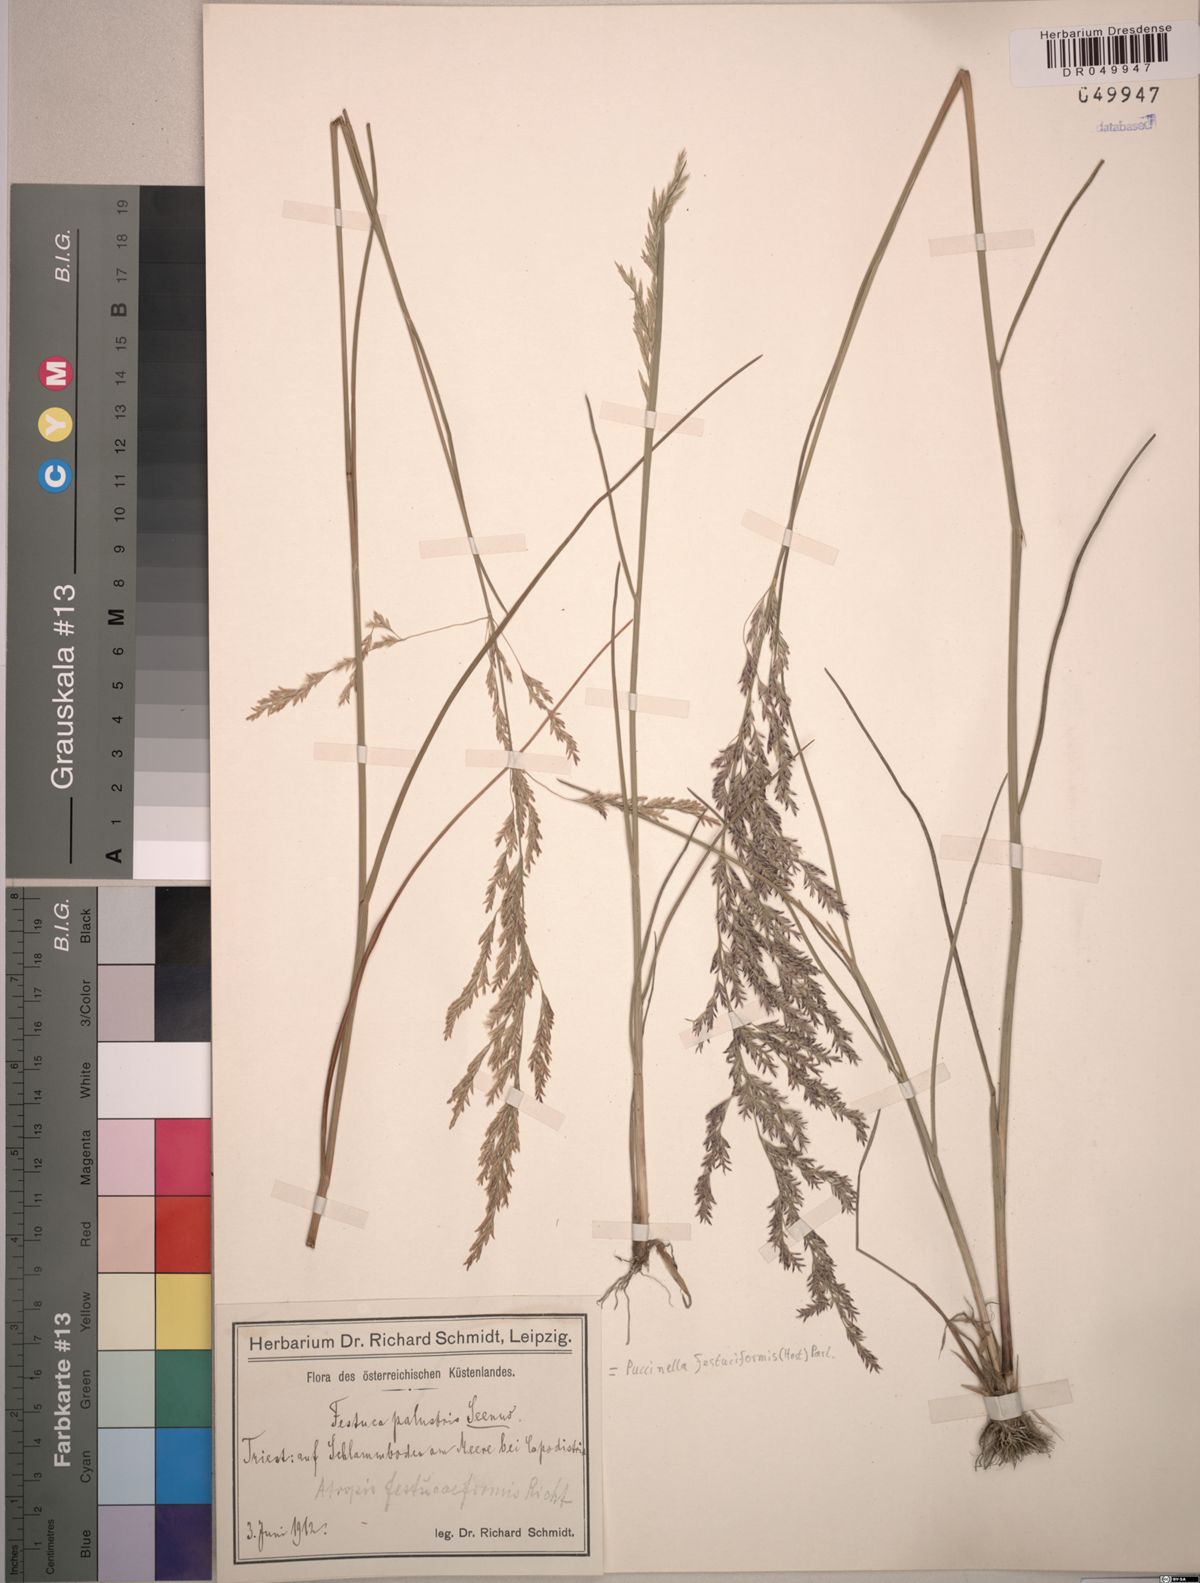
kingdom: Plantae
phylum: Tracheophyta
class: Liliopsida
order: Poales
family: Poaceae
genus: Puccinellia
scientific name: Puccinellia festuciformis
